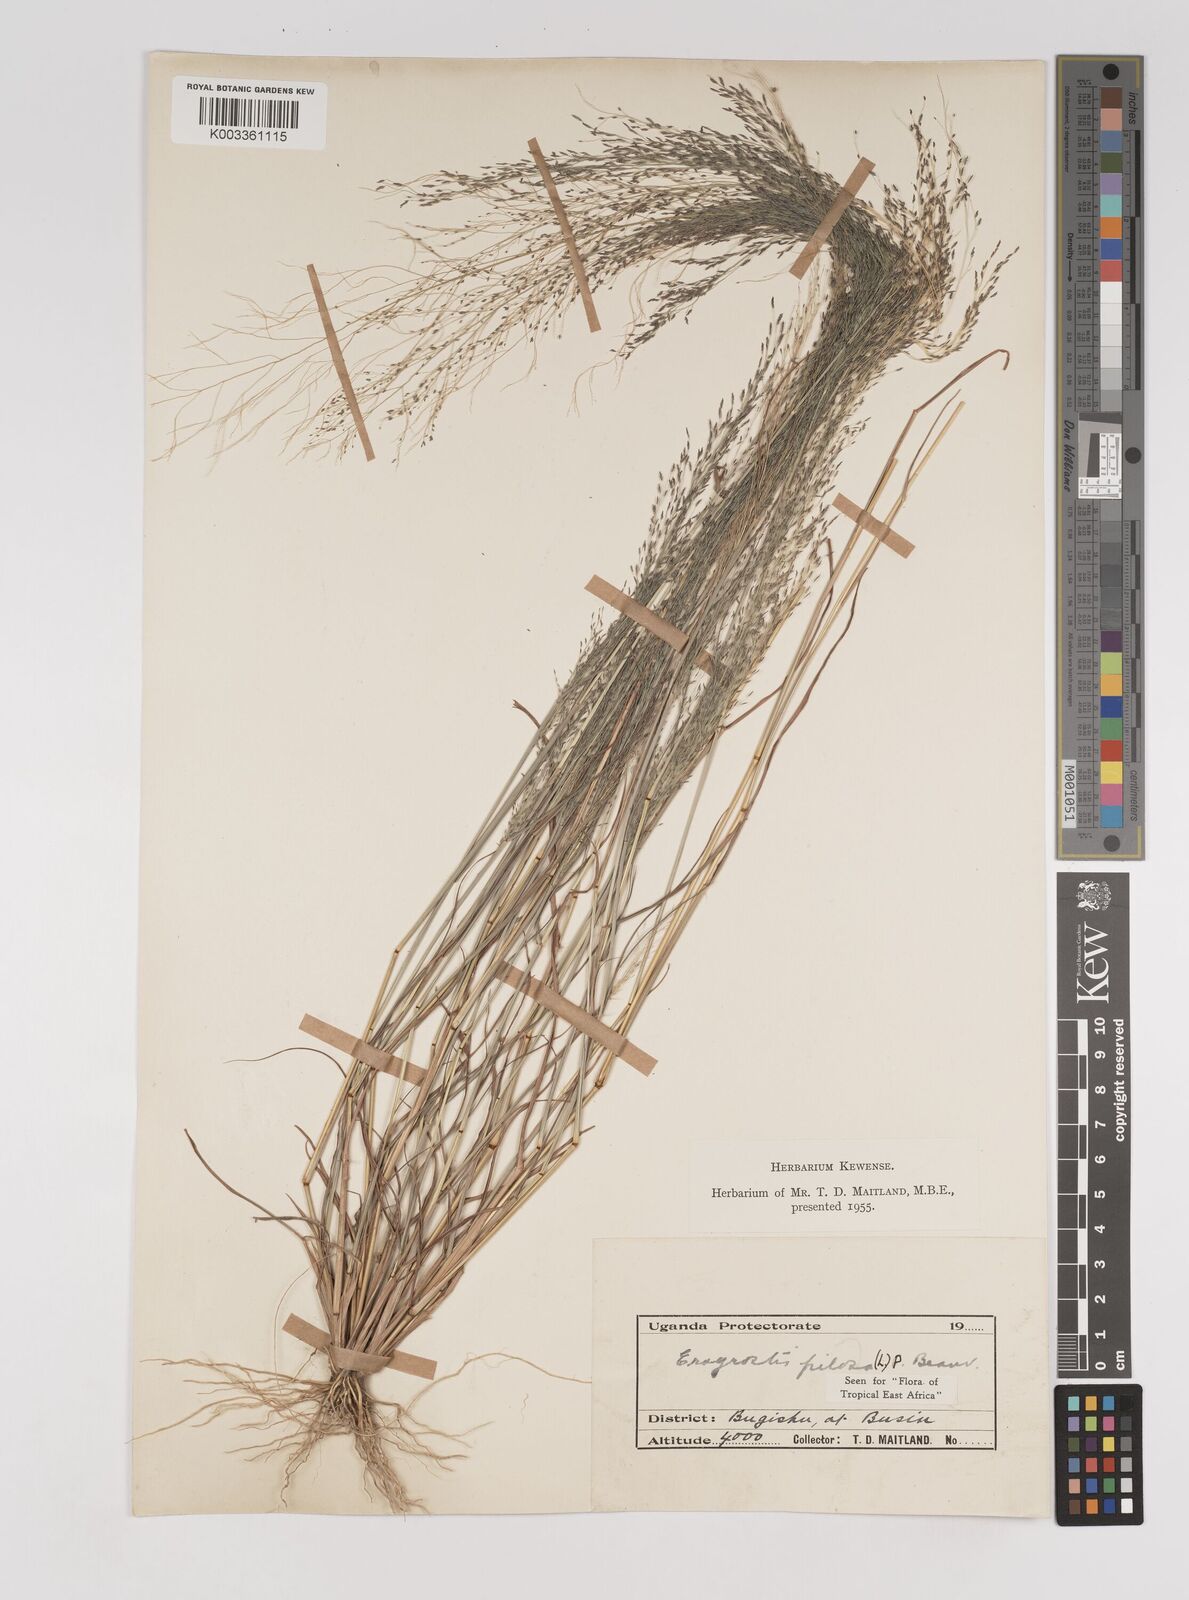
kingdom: Plantae
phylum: Tracheophyta
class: Liliopsida
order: Poales
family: Poaceae
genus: Eragrostis
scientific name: Eragrostis pilosa
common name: Indian lovegrass
